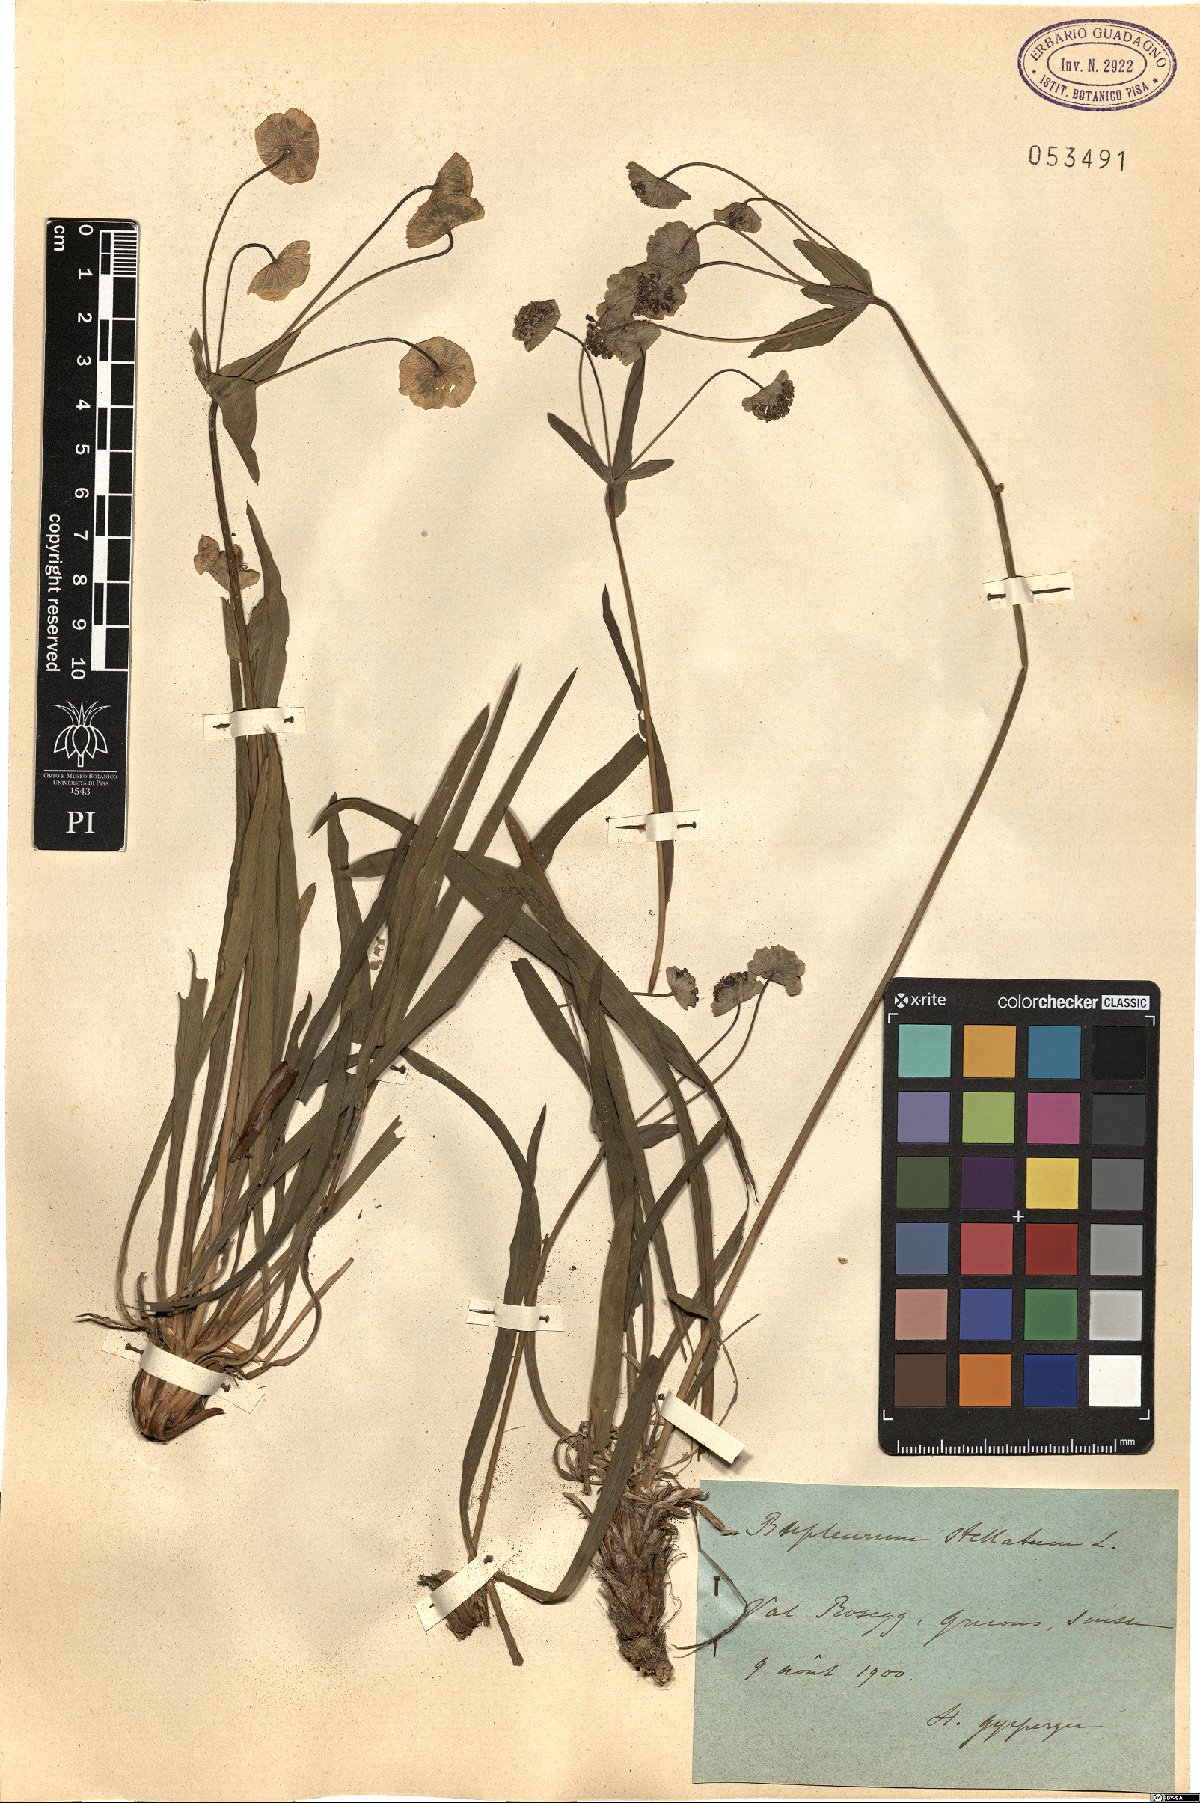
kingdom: Plantae
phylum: Tracheophyta
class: Magnoliopsida
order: Apiales
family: Apiaceae
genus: Bupleurum
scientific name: Bupleurum stellatum
